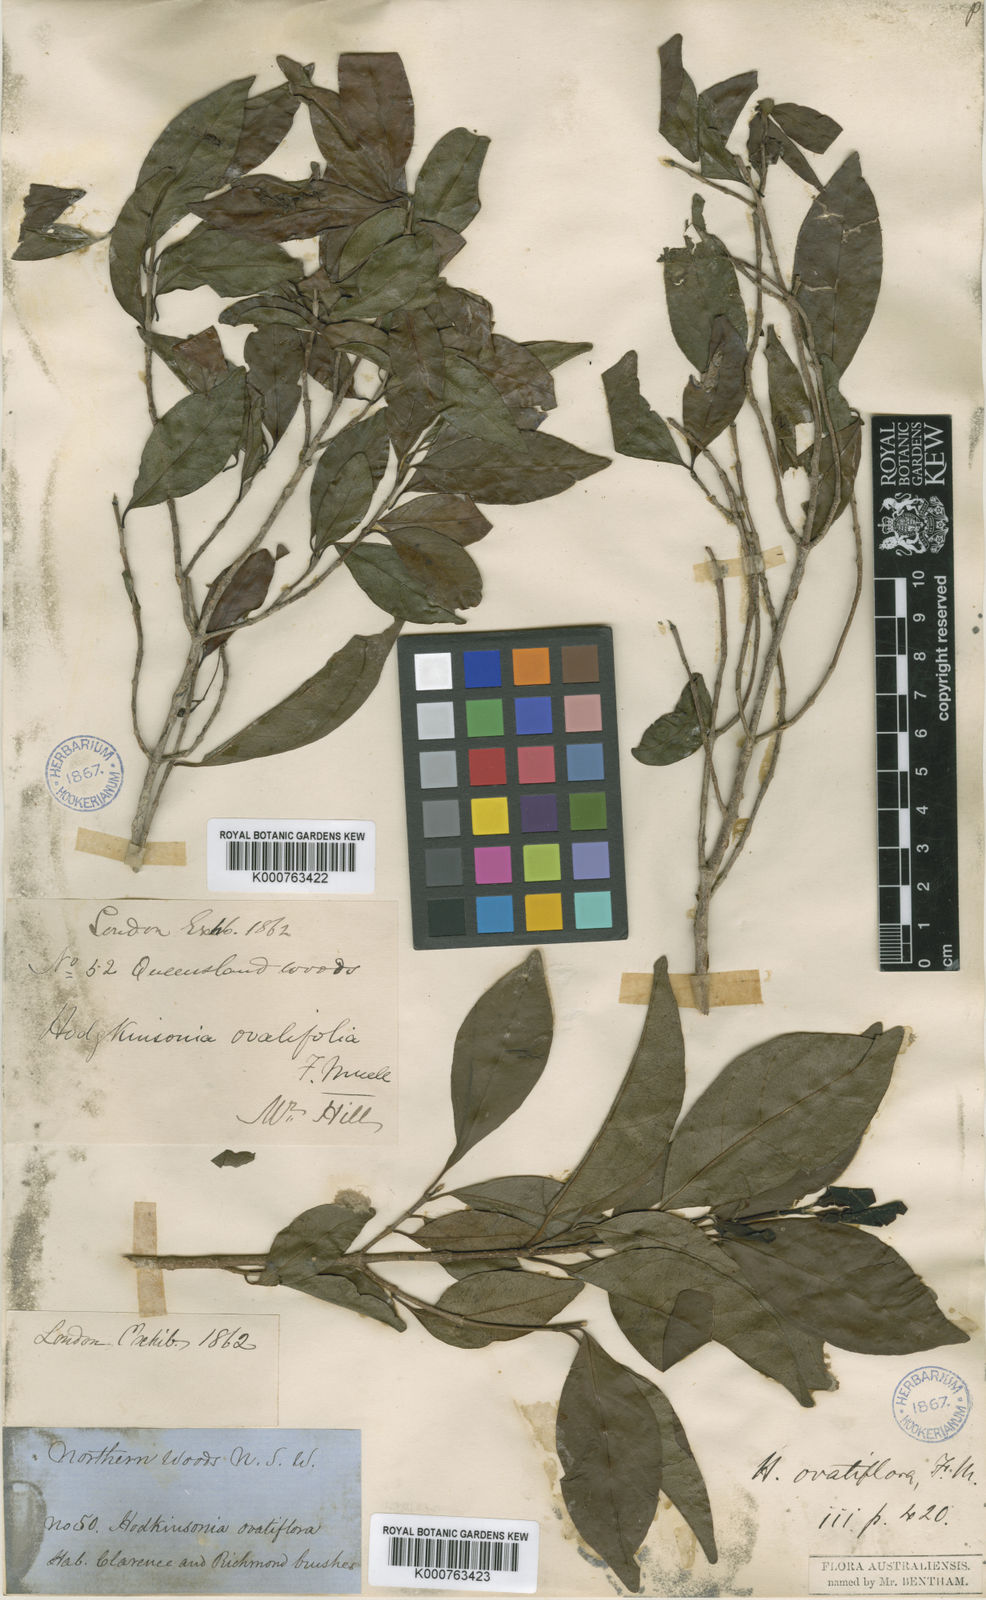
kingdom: Plantae
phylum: Tracheophyta
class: Magnoliopsida
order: Gentianales
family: Rubiaceae
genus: Hodgkinsonia
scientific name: Hodgkinsonia ovatiflora
